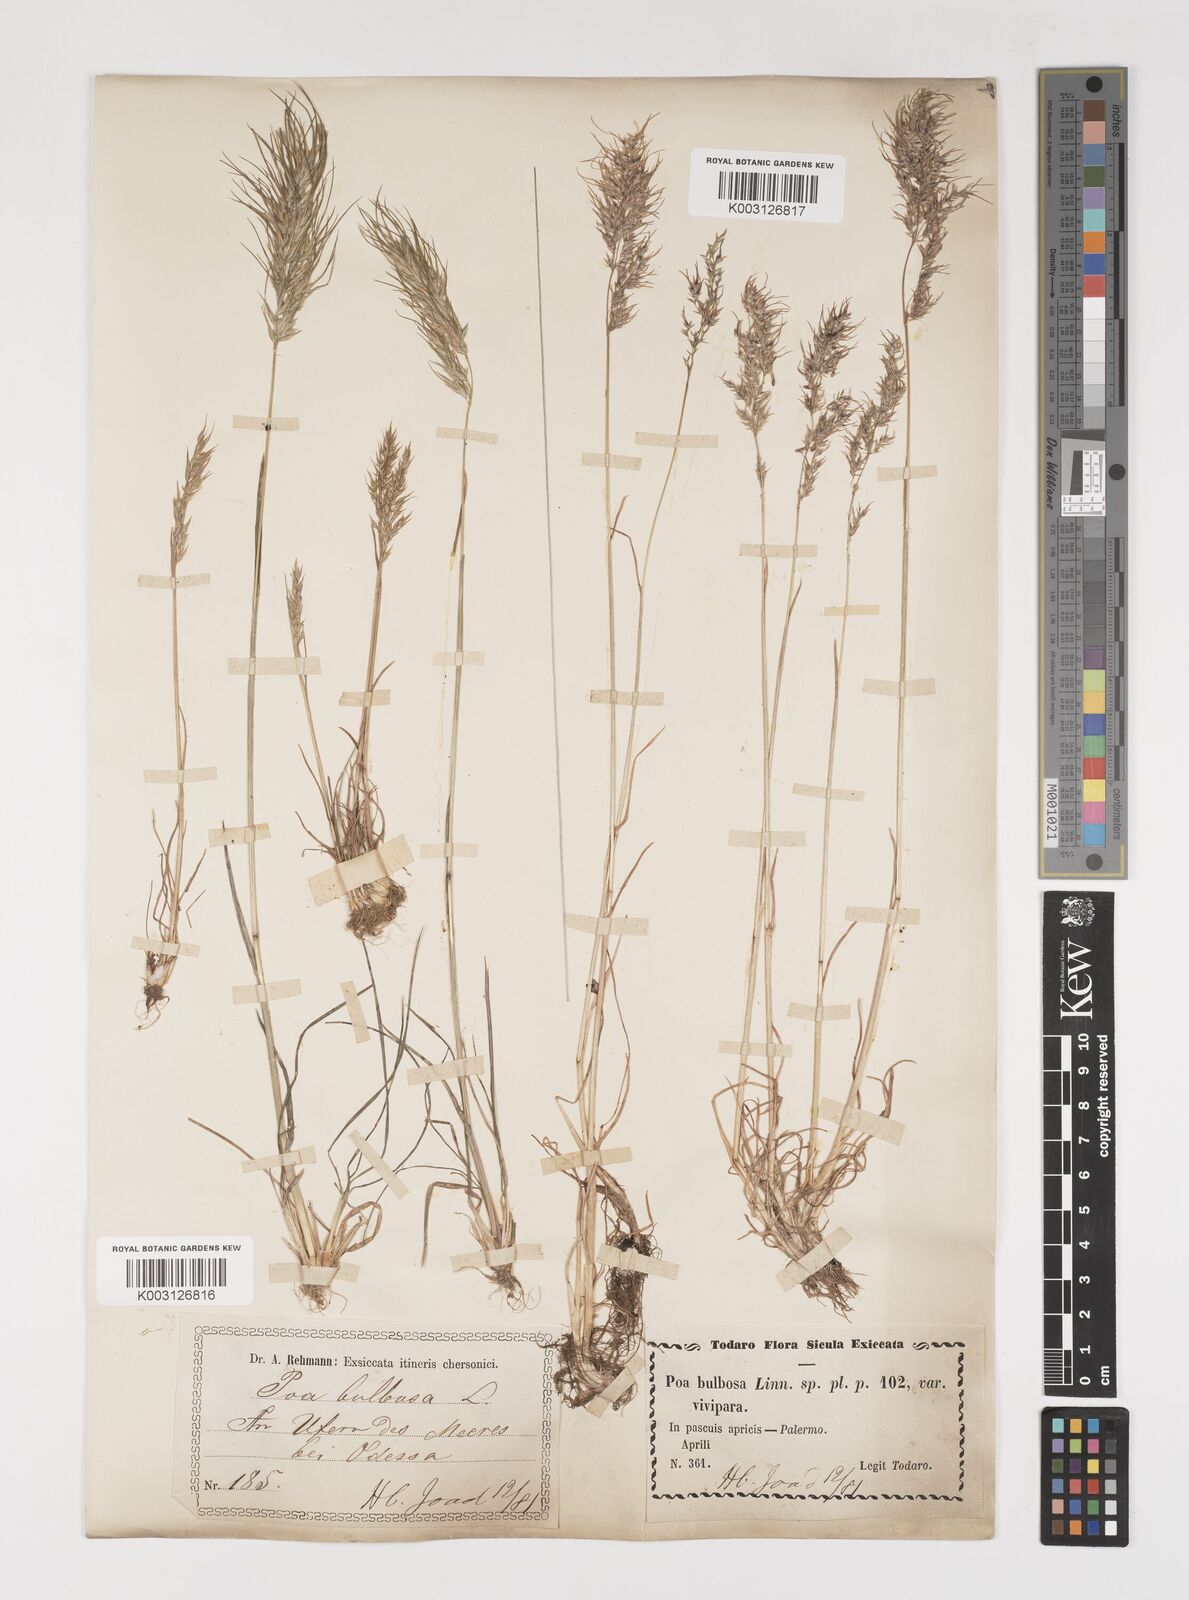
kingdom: Plantae
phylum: Tracheophyta
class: Liliopsida
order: Poales
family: Poaceae
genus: Poa
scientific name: Poa bulbosa
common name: Bulbous bluegrass
